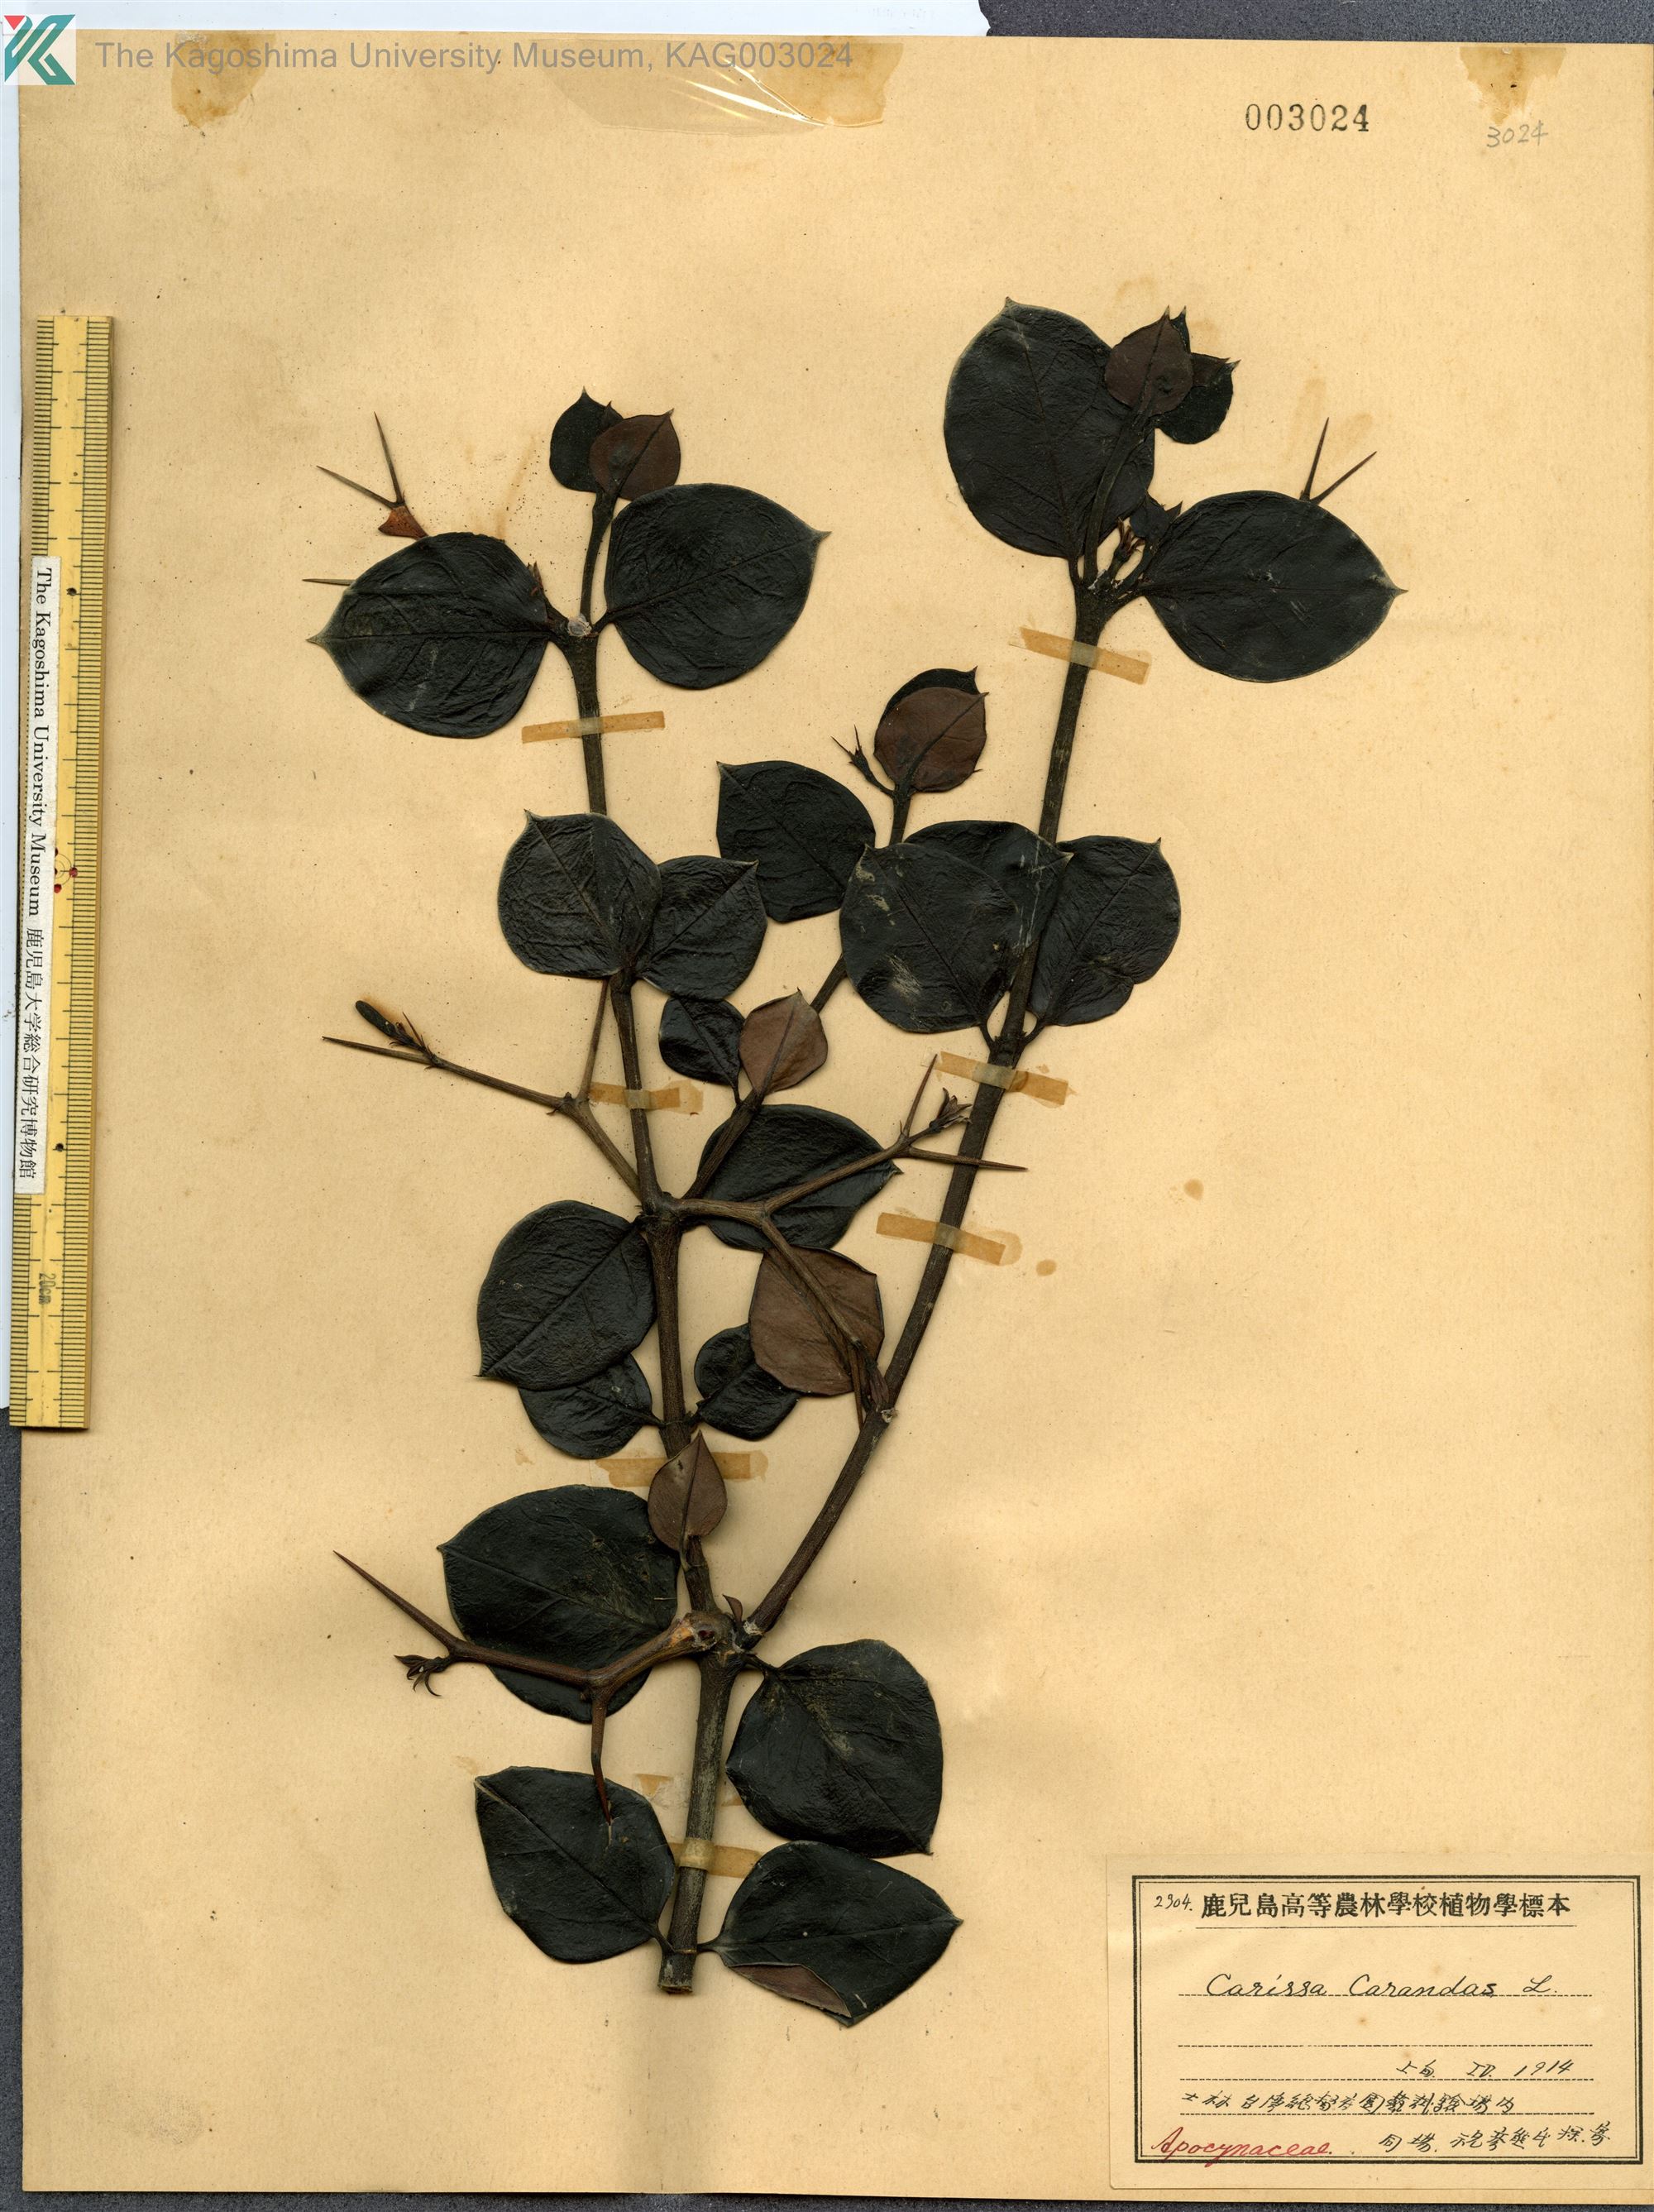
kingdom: Plantae
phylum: Tracheophyta
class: Magnoliopsida
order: Gentianales
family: Apocynaceae
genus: Carissa
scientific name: Carissa carandas
